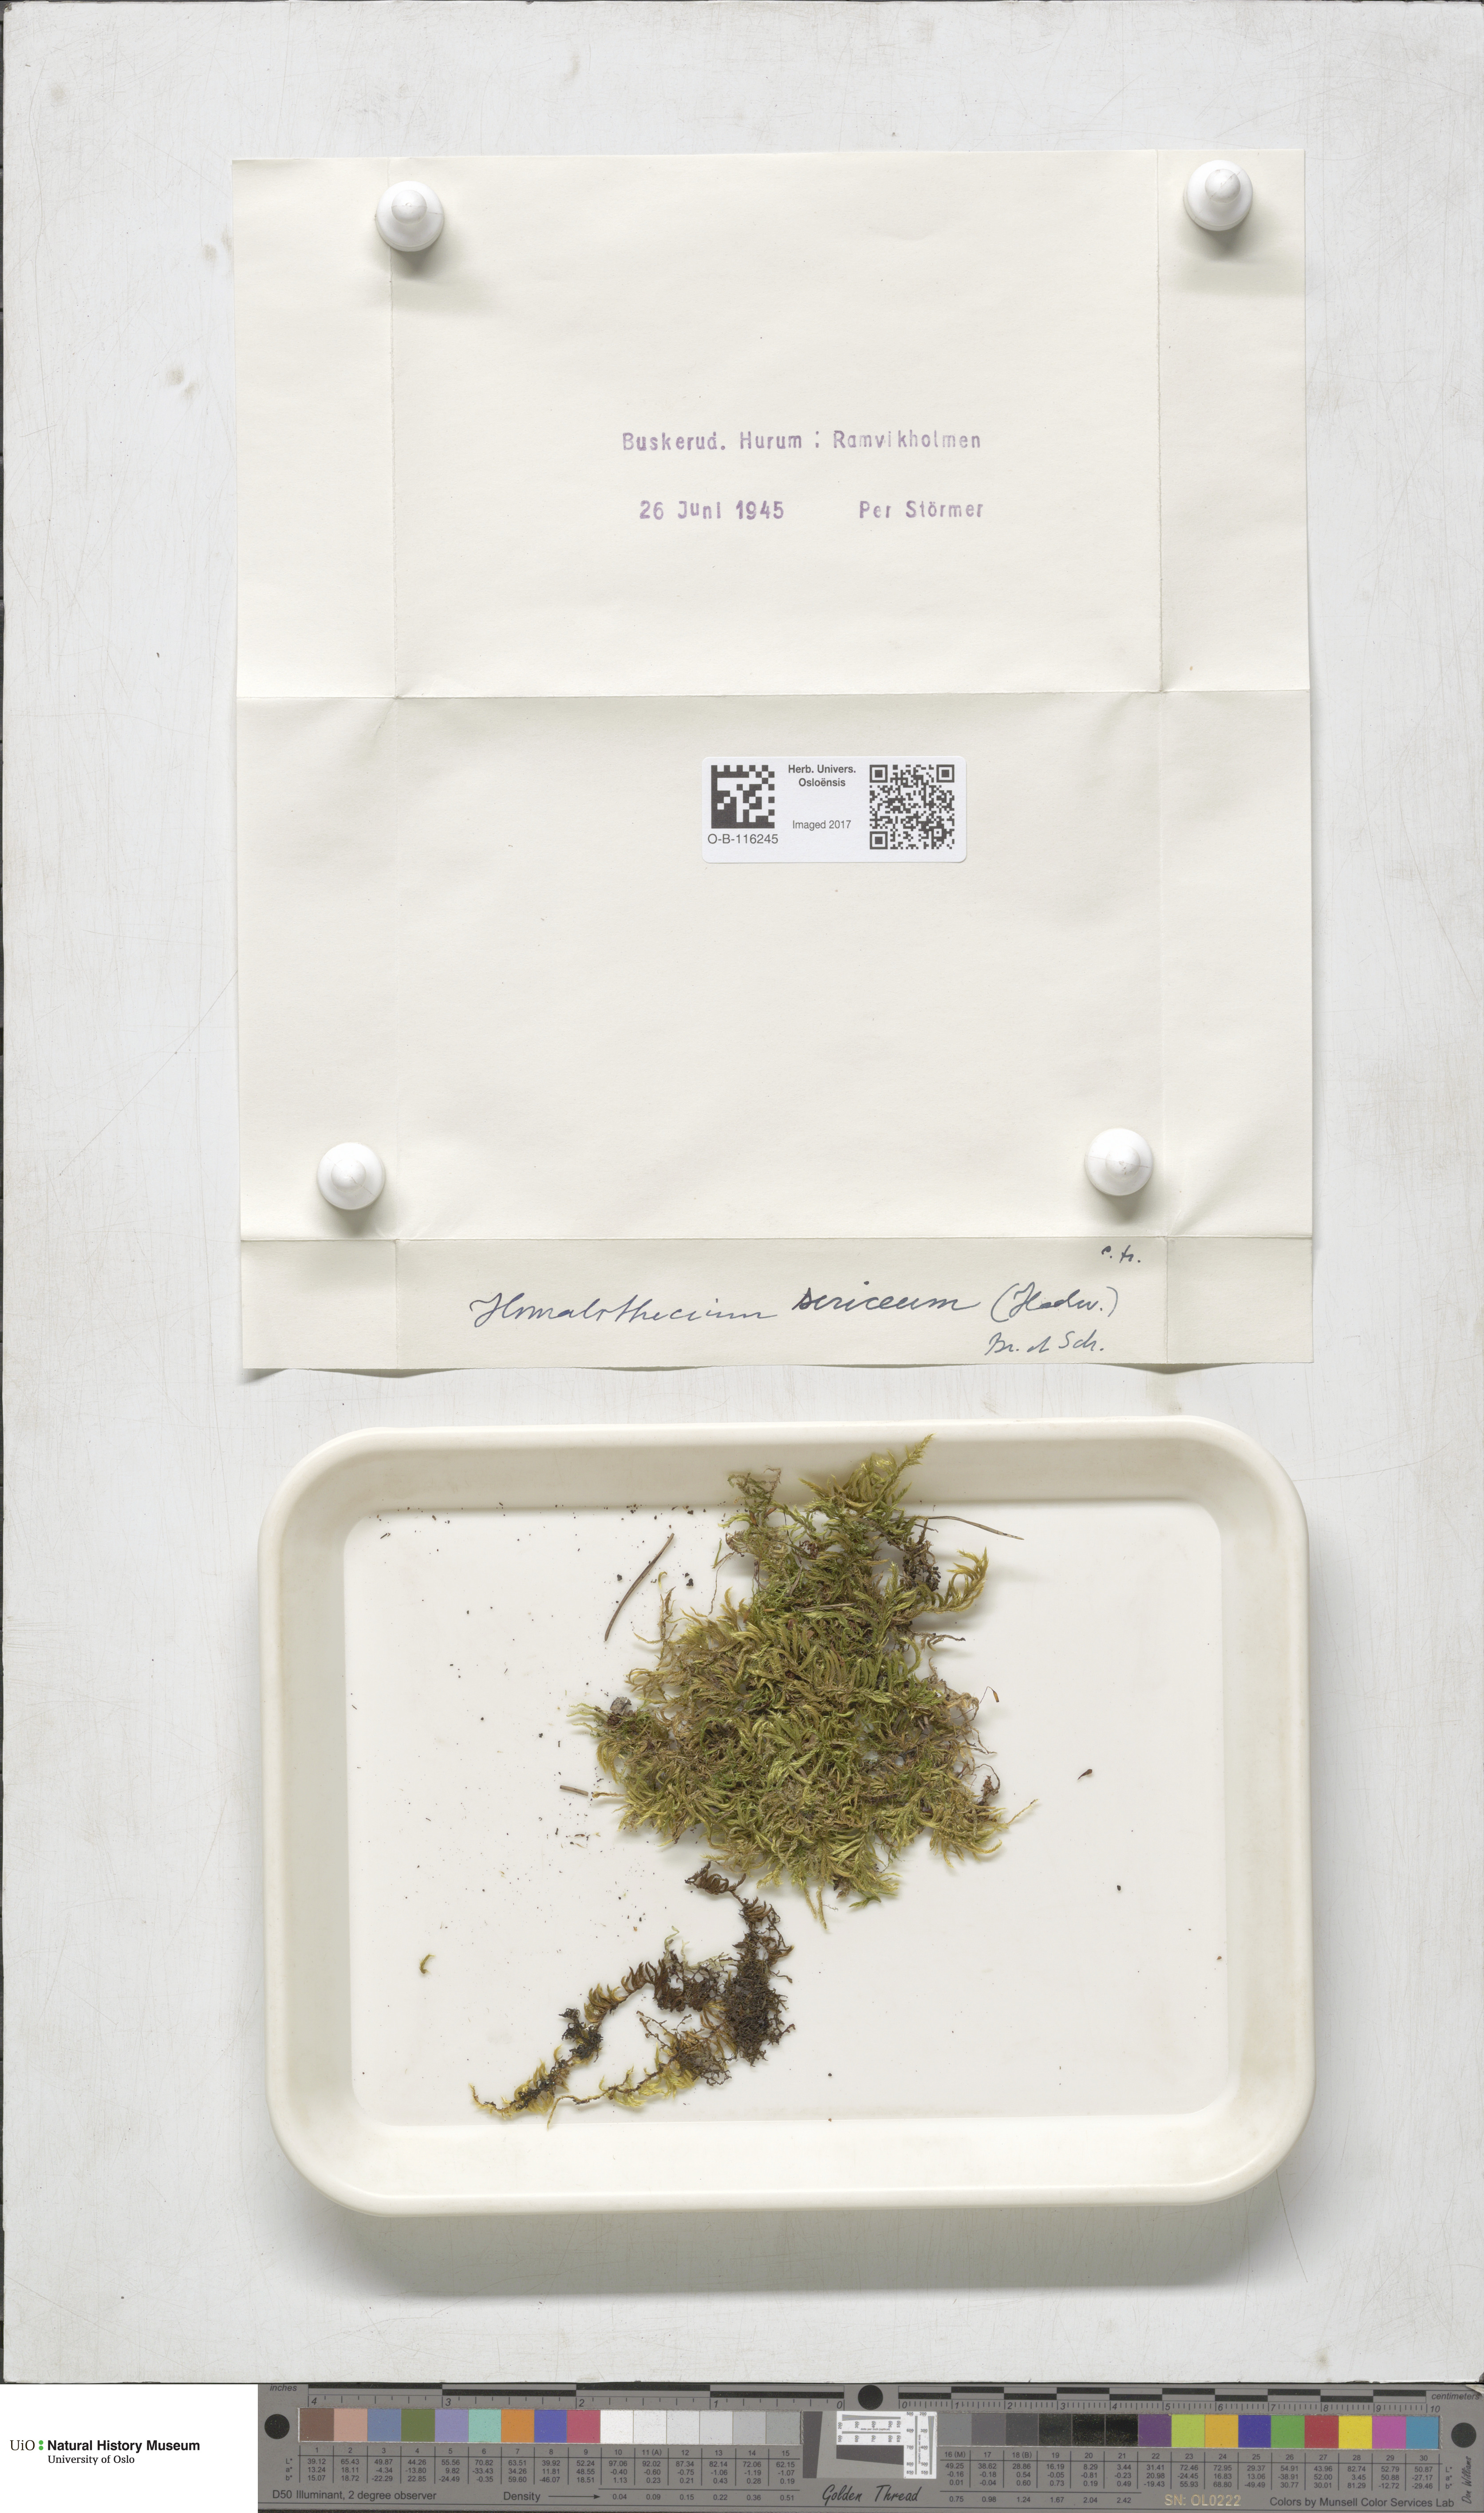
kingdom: Plantae
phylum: Bryophyta
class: Bryopsida
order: Hypnales
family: Brachytheciaceae
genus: Homalothecium
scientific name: Homalothecium sericeum
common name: Silky wall feather-moss
